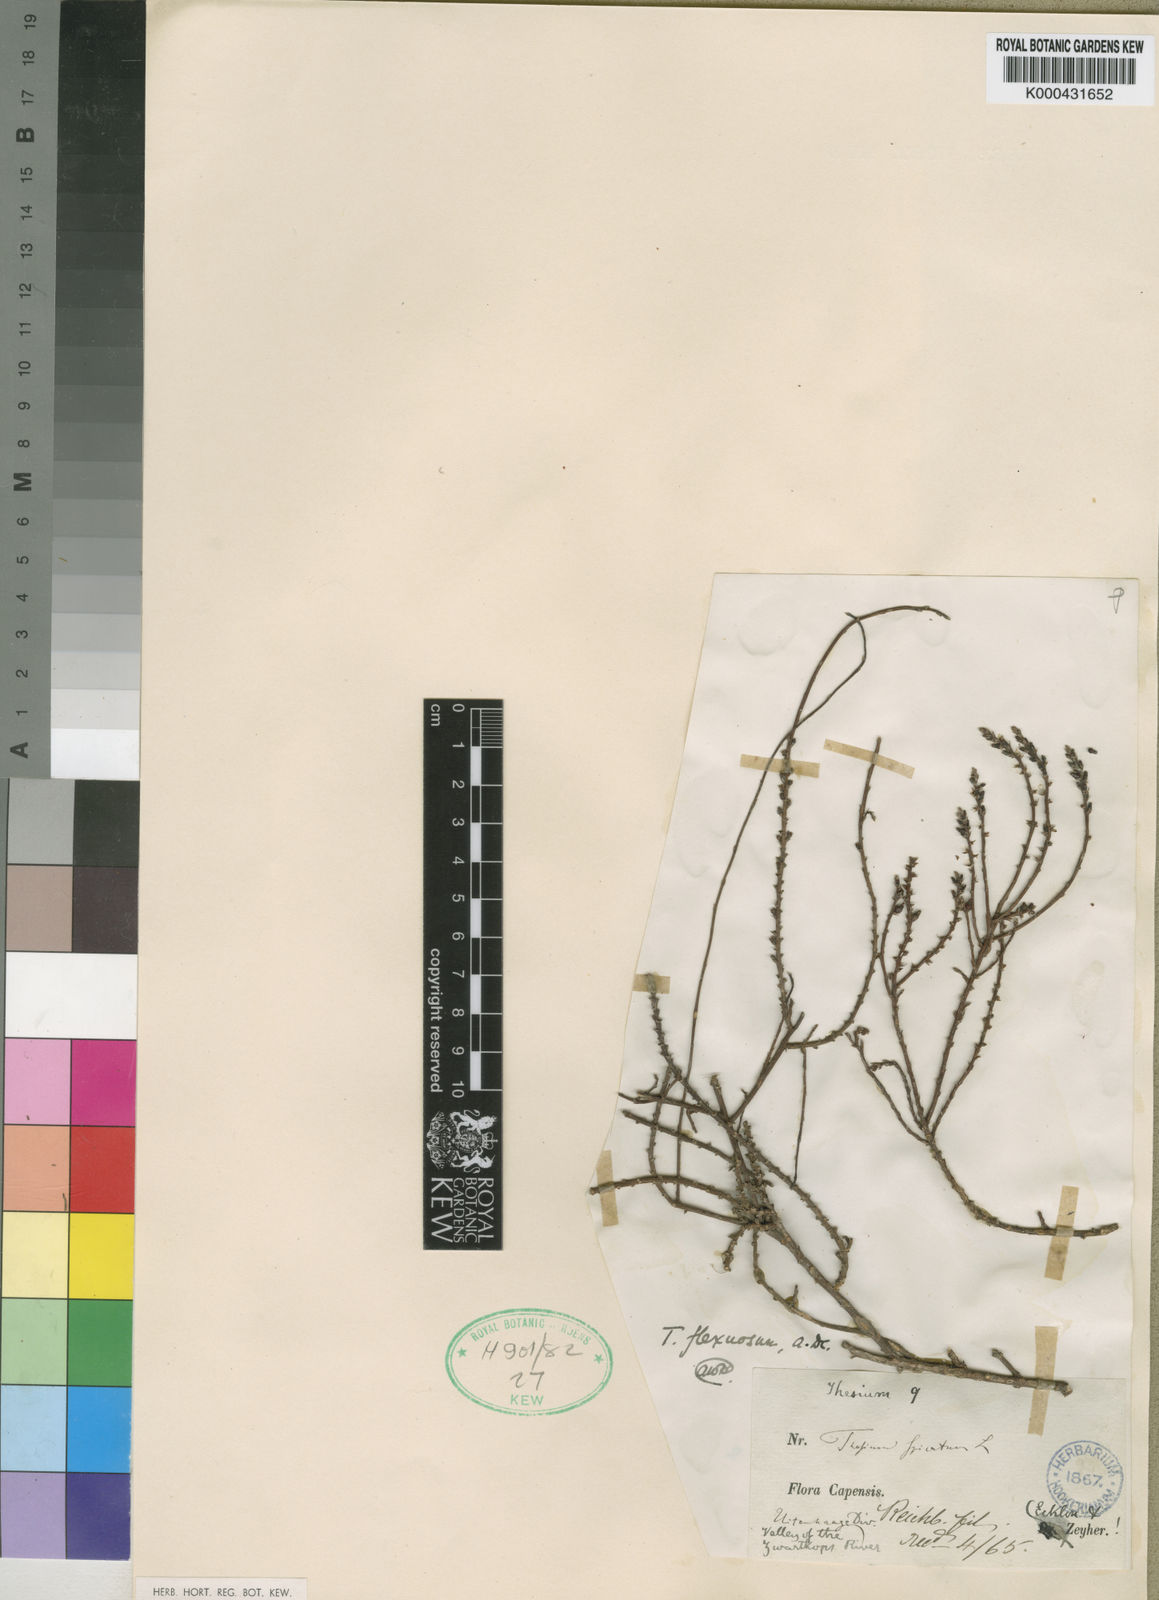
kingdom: Plantae
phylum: Tracheophyta
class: Magnoliopsida
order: Santalales
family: Thesiaceae
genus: Thesium
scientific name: Thesium flexuosum
